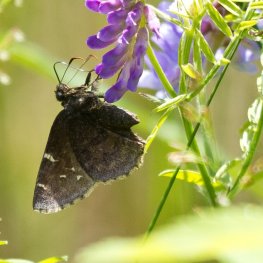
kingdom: Animalia
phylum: Arthropoda
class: Insecta
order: Lepidoptera
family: Hesperiidae
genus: Autochton
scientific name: Autochton
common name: Northern Cloudywing
